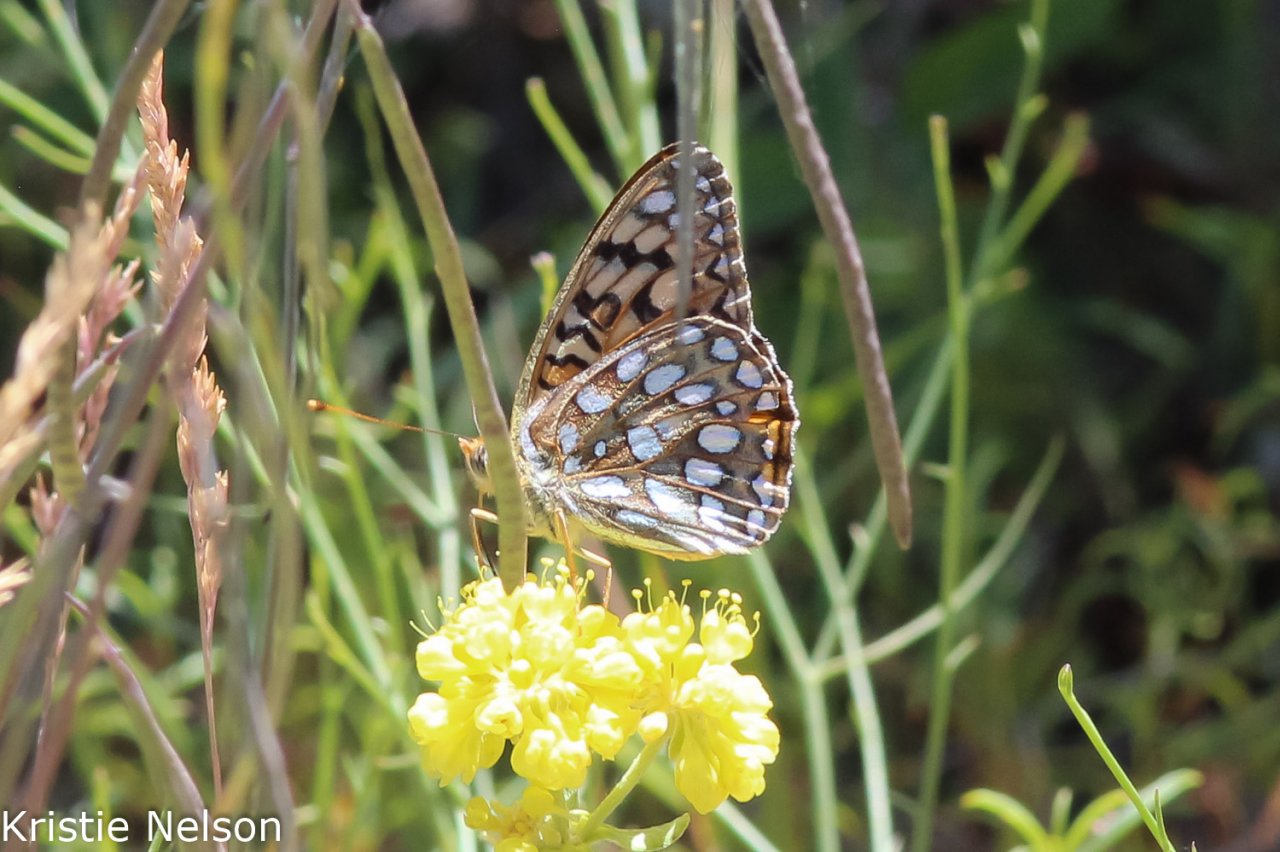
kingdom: Animalia
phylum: Arthropoda
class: Insecta
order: Lepidoptera
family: Nymphalidae
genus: Speyeria
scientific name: Speyeria callippe
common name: Callippe Fritillary
